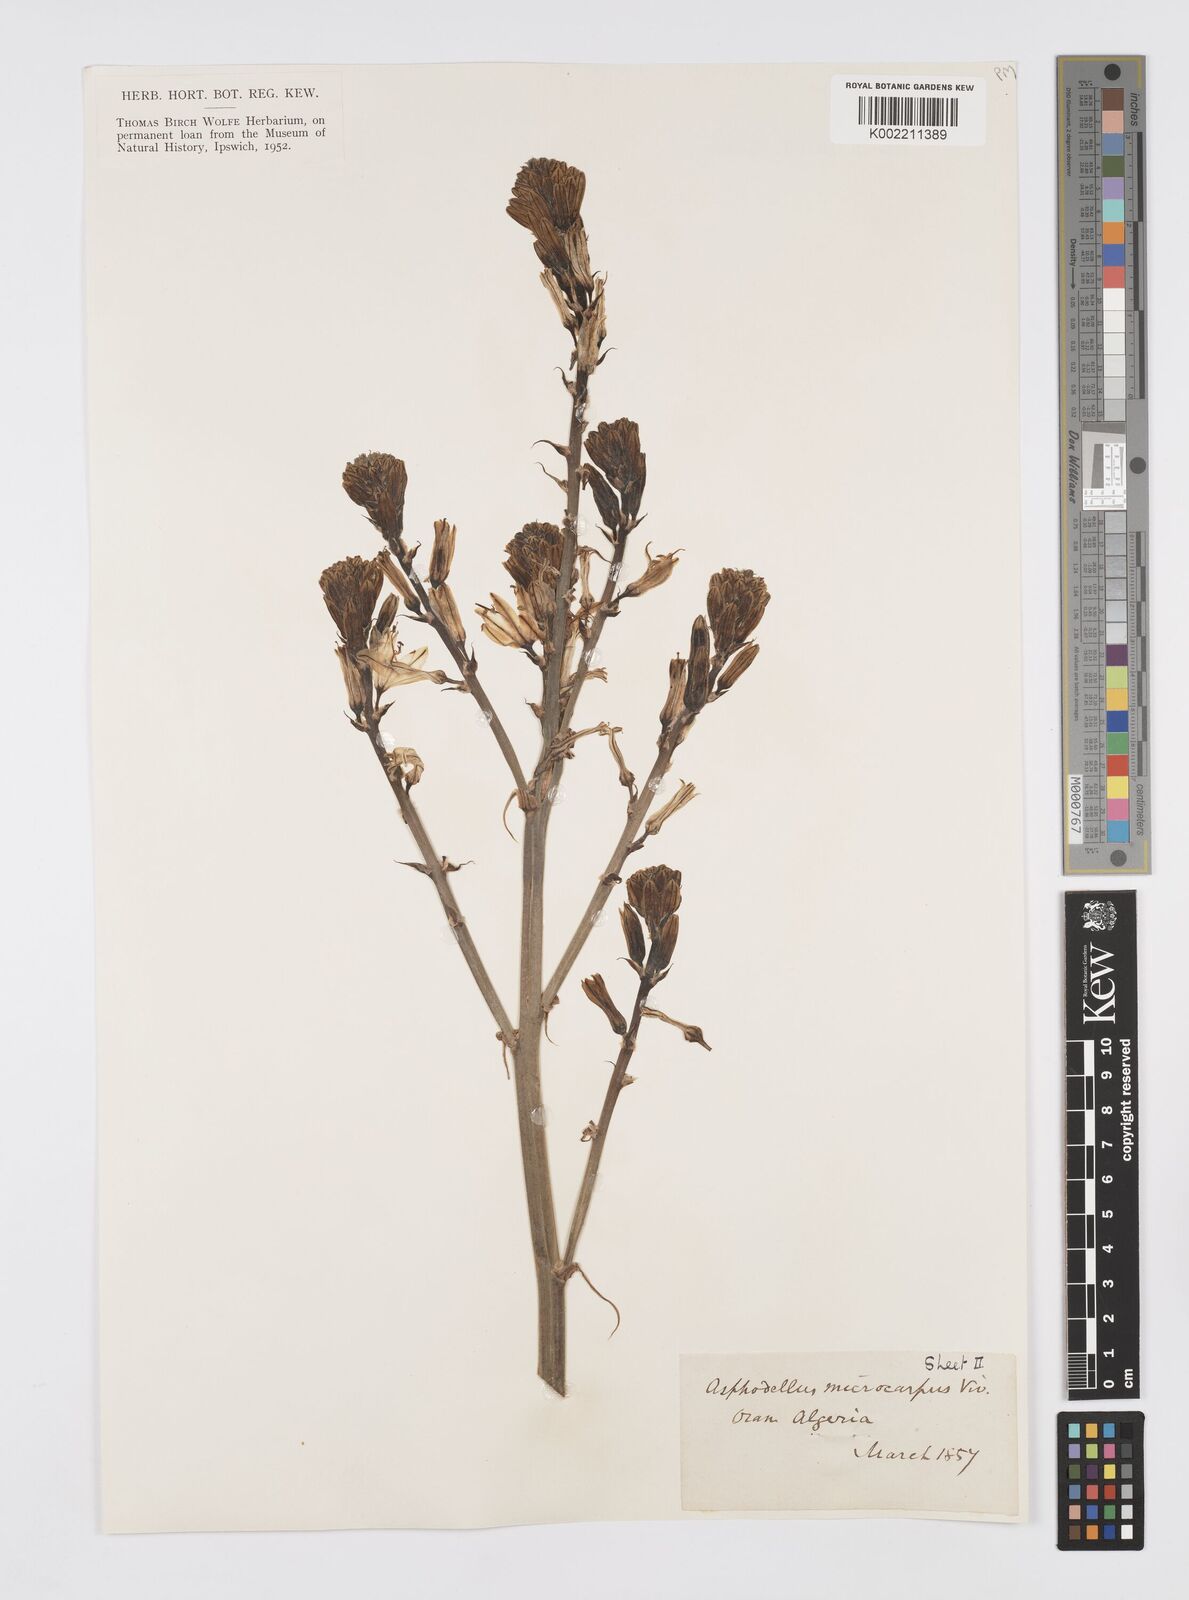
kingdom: Plantae
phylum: Tracheophyta
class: Liliopsida
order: Asparagales
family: Asphodelaceae
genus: Asphodelus
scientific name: Asphodelus ramosus
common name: Silverrod
